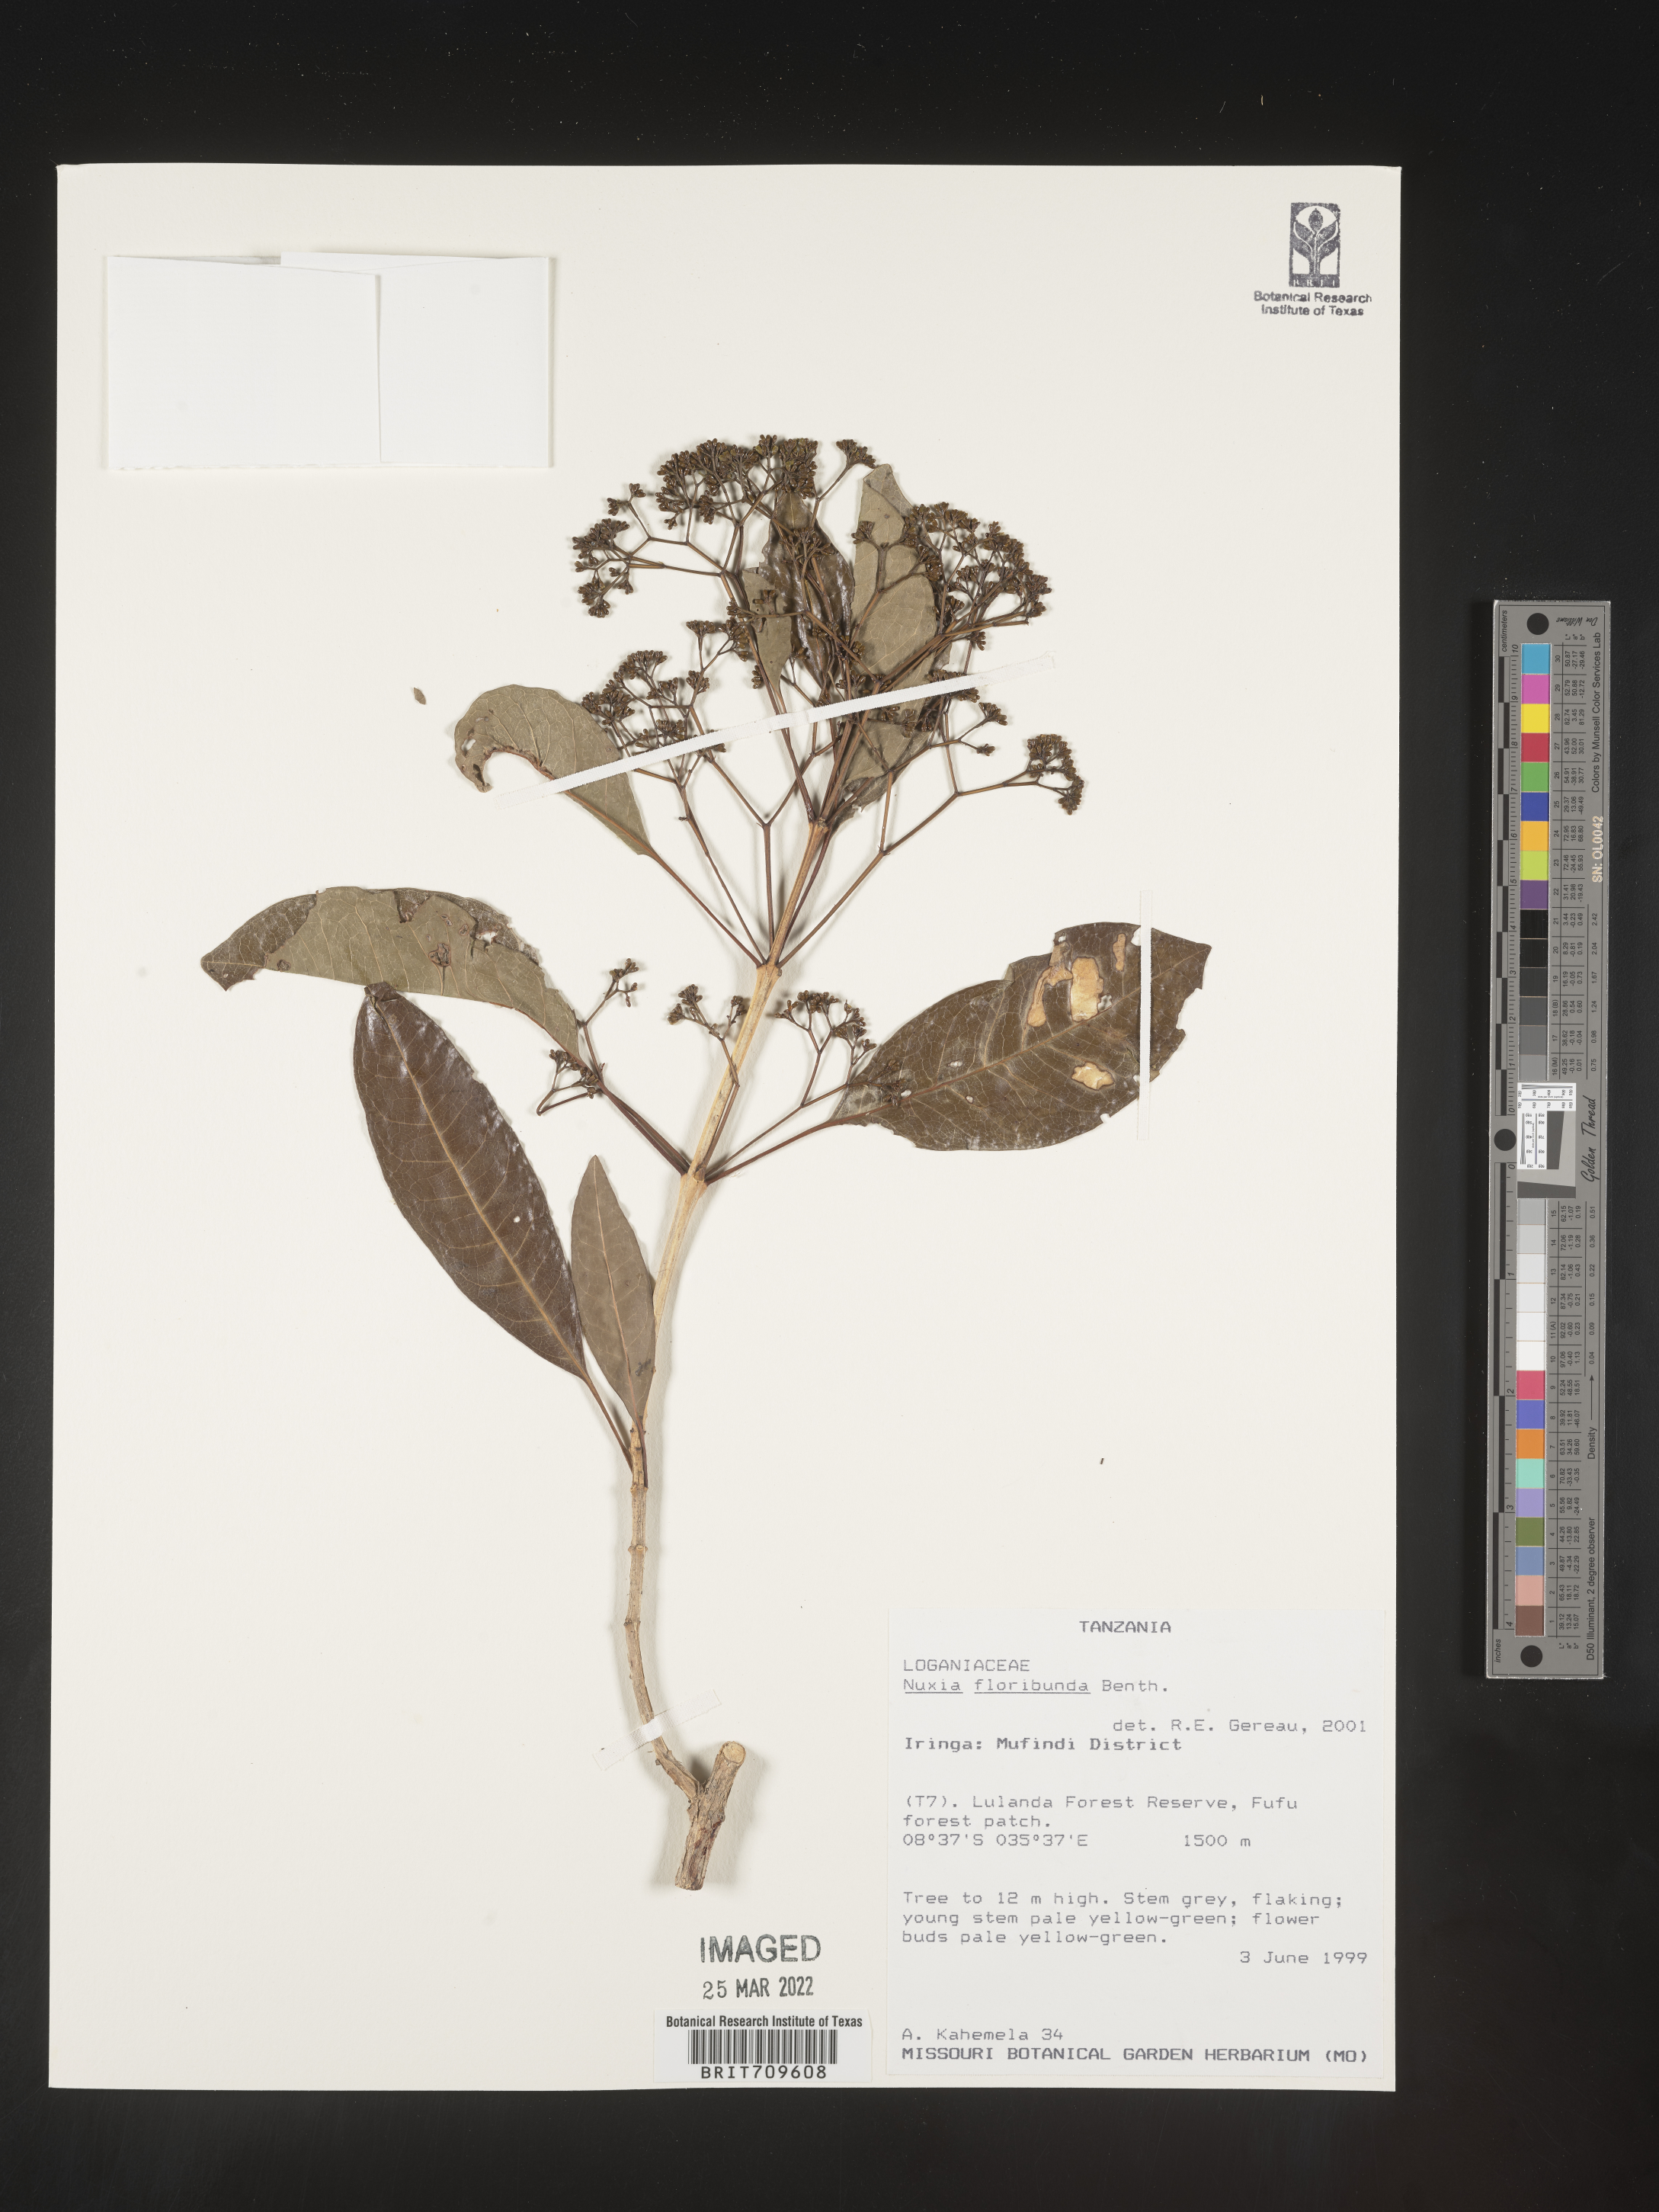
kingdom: Plantae
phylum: Tracheophyta
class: Magnoliopsida
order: Lamiales
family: Stilbaceae
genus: Nuxia
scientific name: Nuxia
